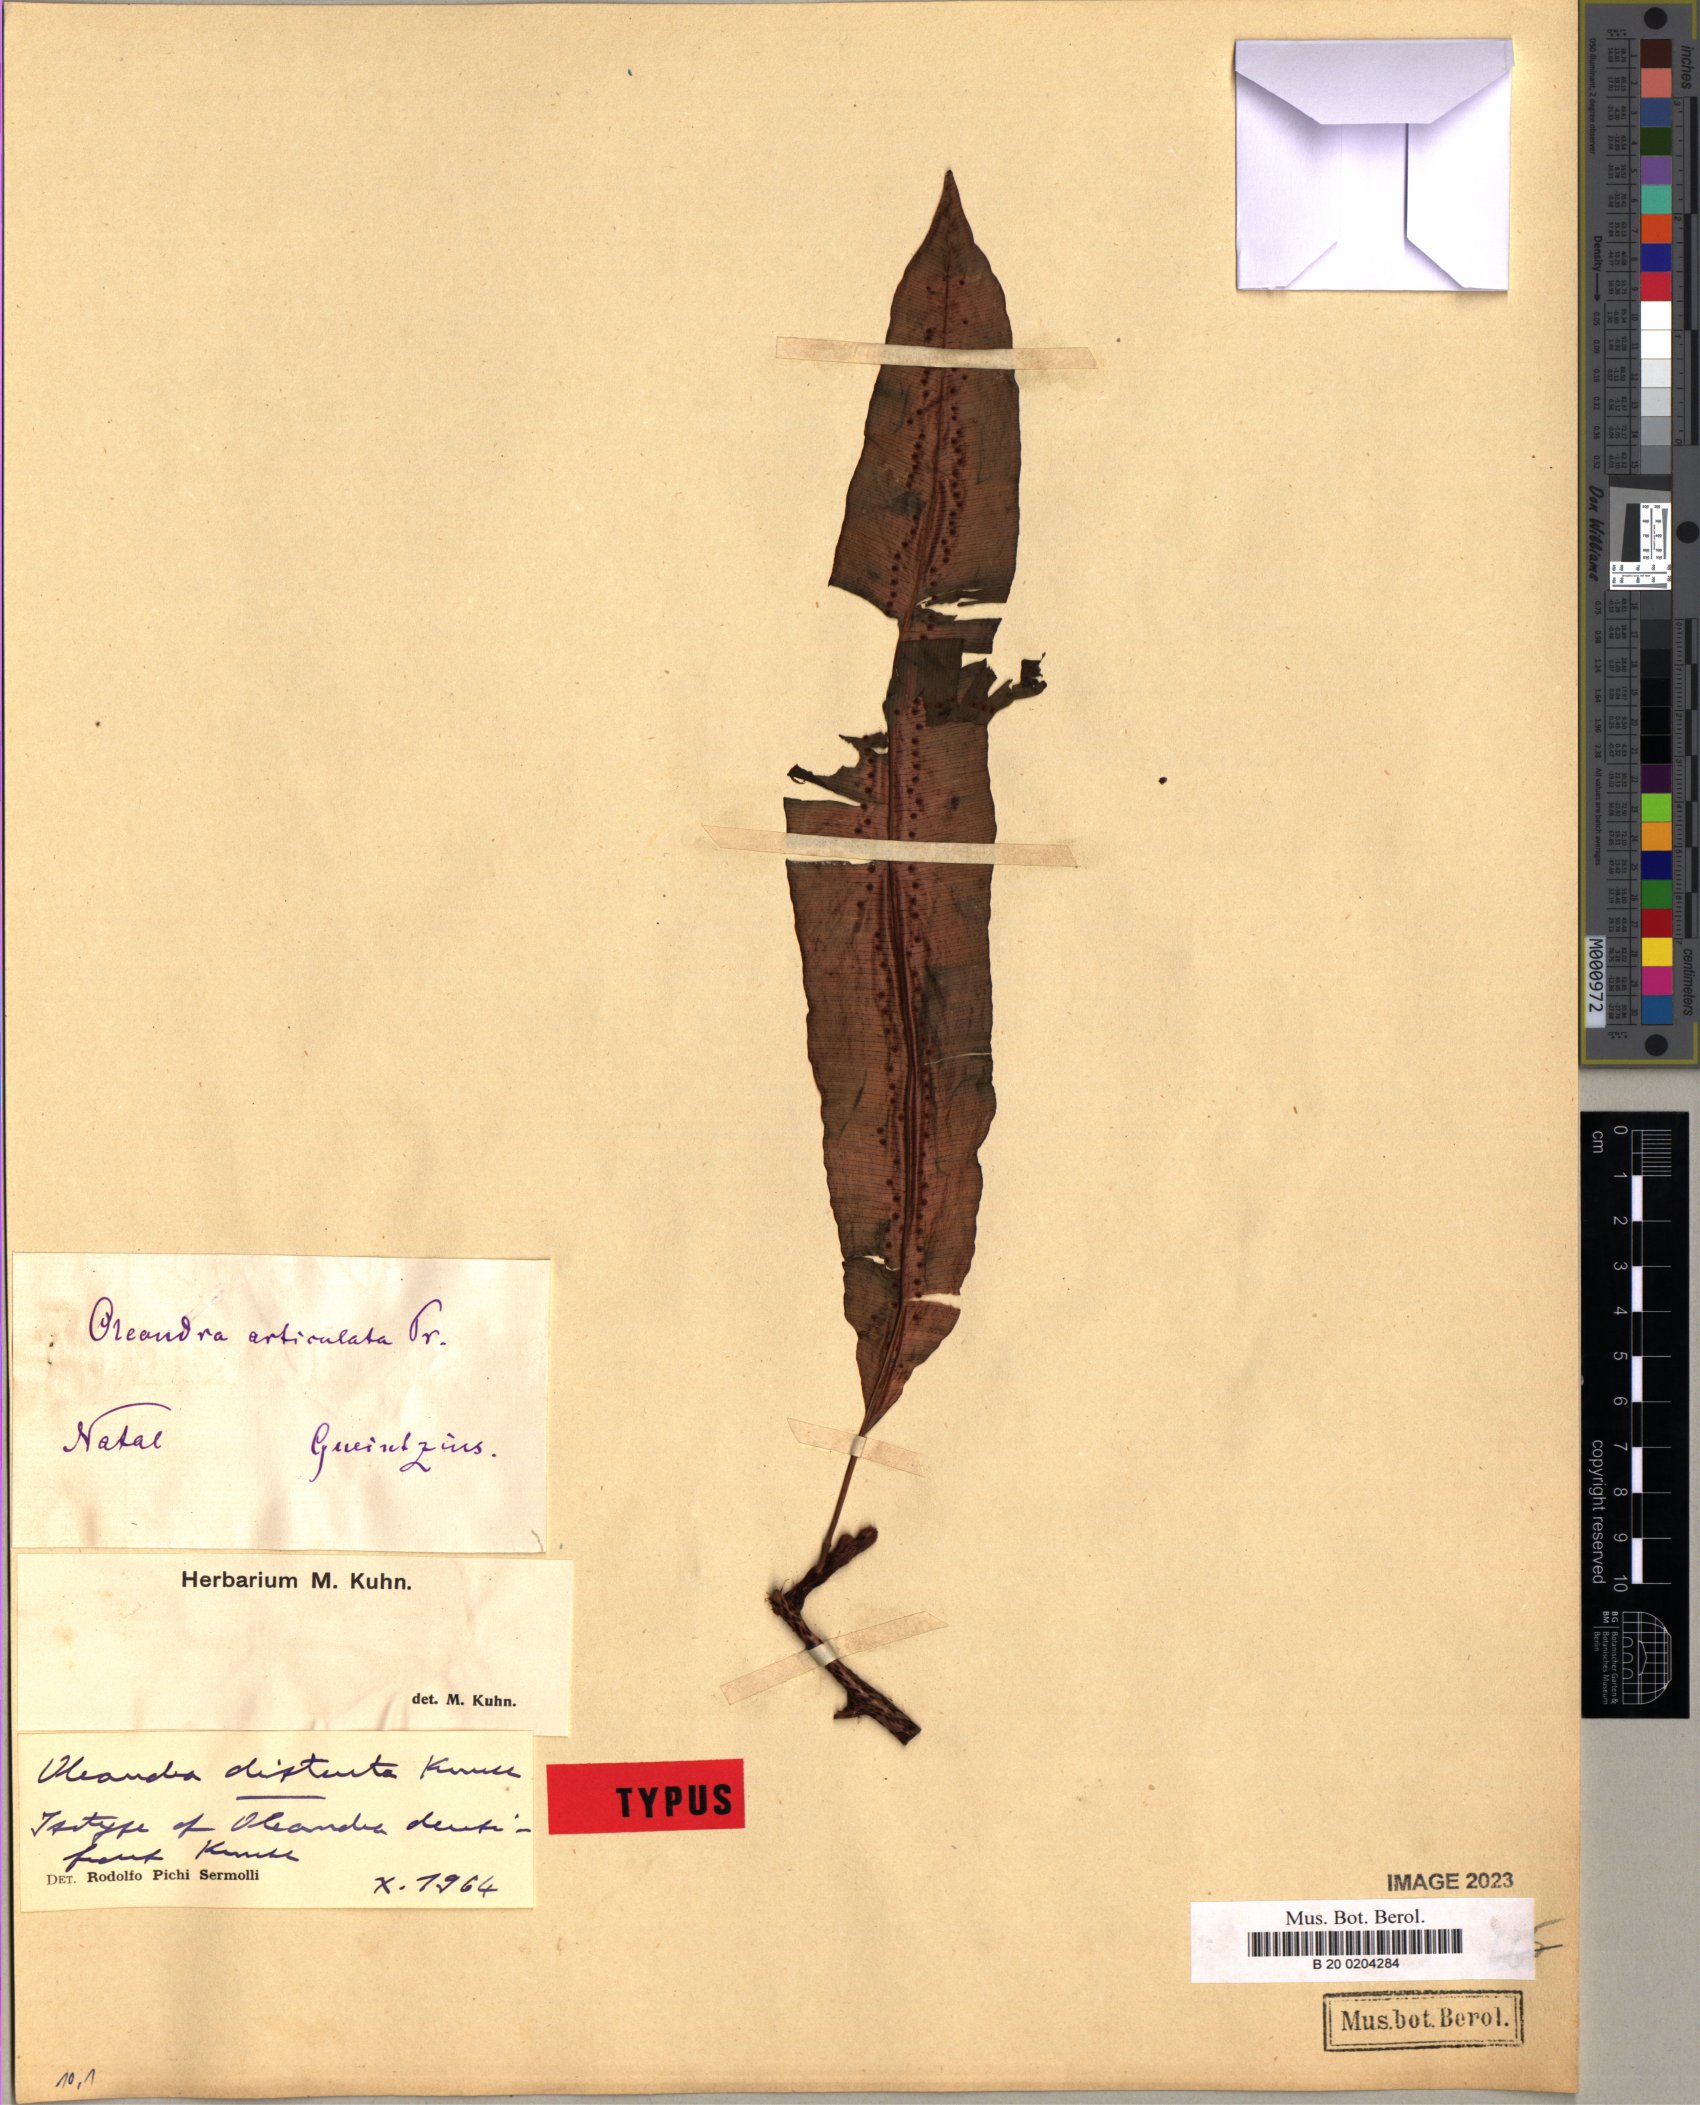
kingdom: Plantae
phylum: Tracheophyta
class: Polypodiopsida
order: Polypodiales
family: Oleandraceae
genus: Oleandra
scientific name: Oleandra distenta
